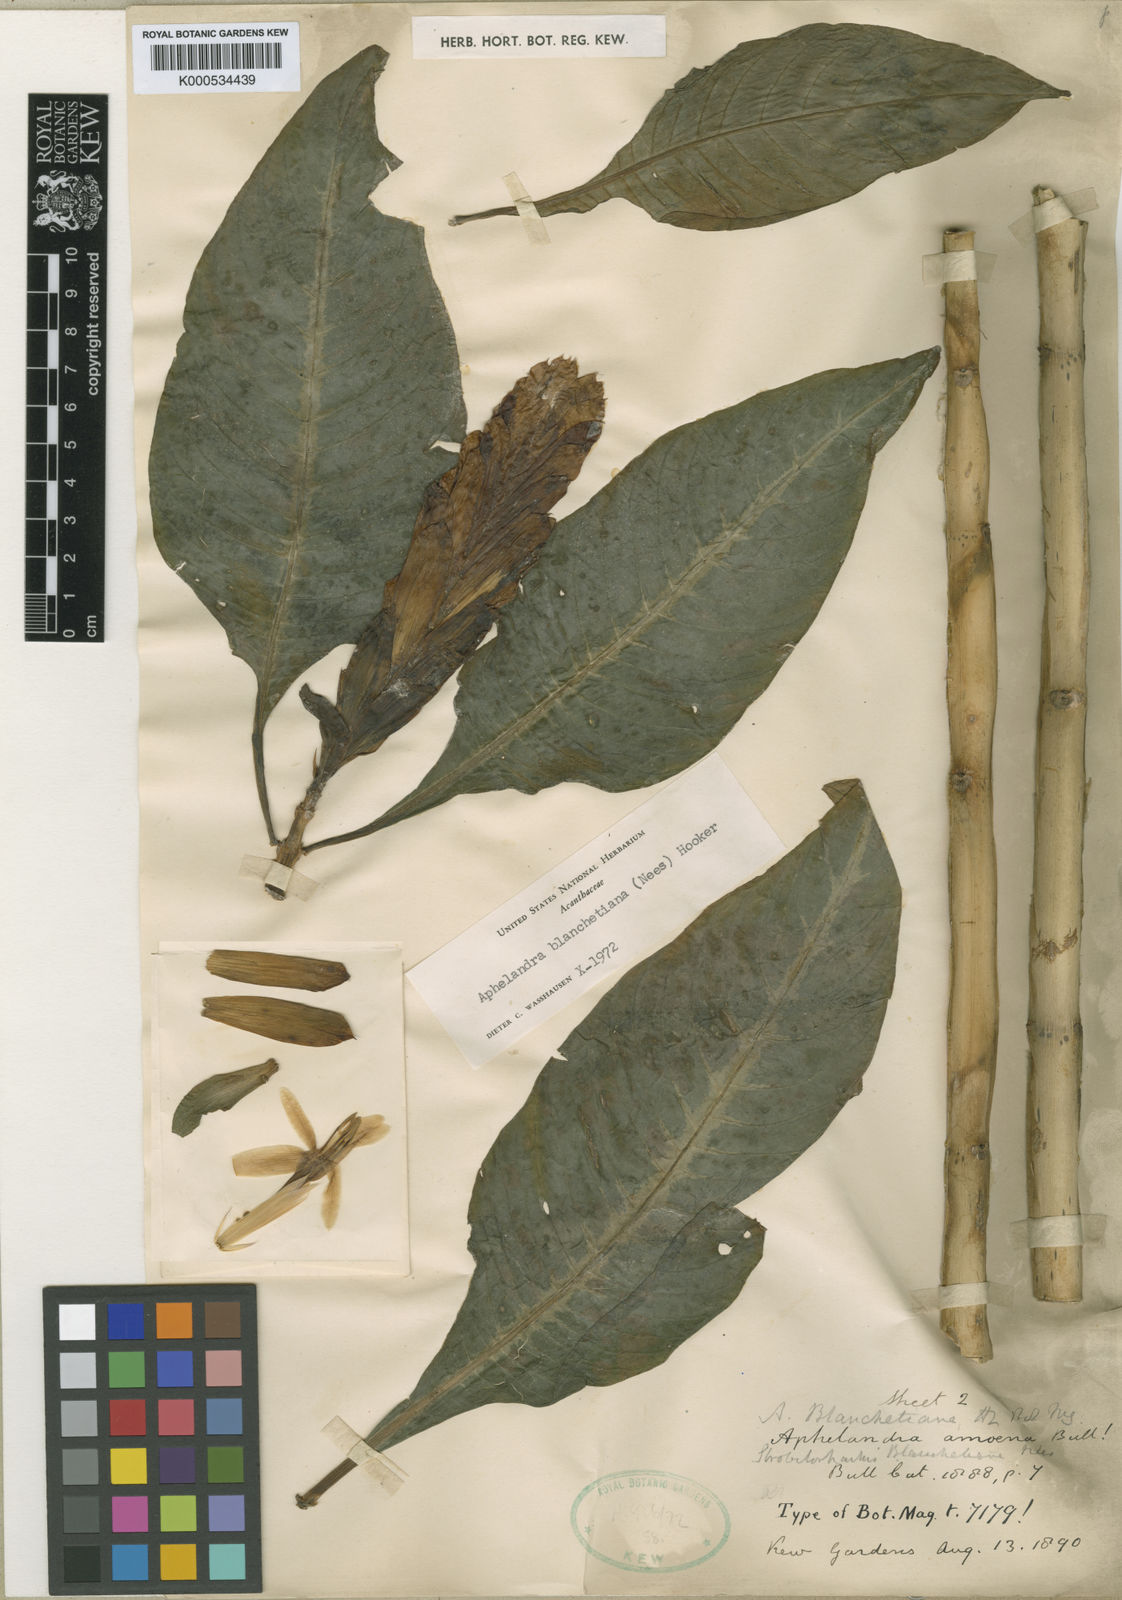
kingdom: Plantae
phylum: Tracheophyta
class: Magnoliopsida
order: Lamiales
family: Acanthaceae
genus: Aphelandra
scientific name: Aphelandra blanchetiana
